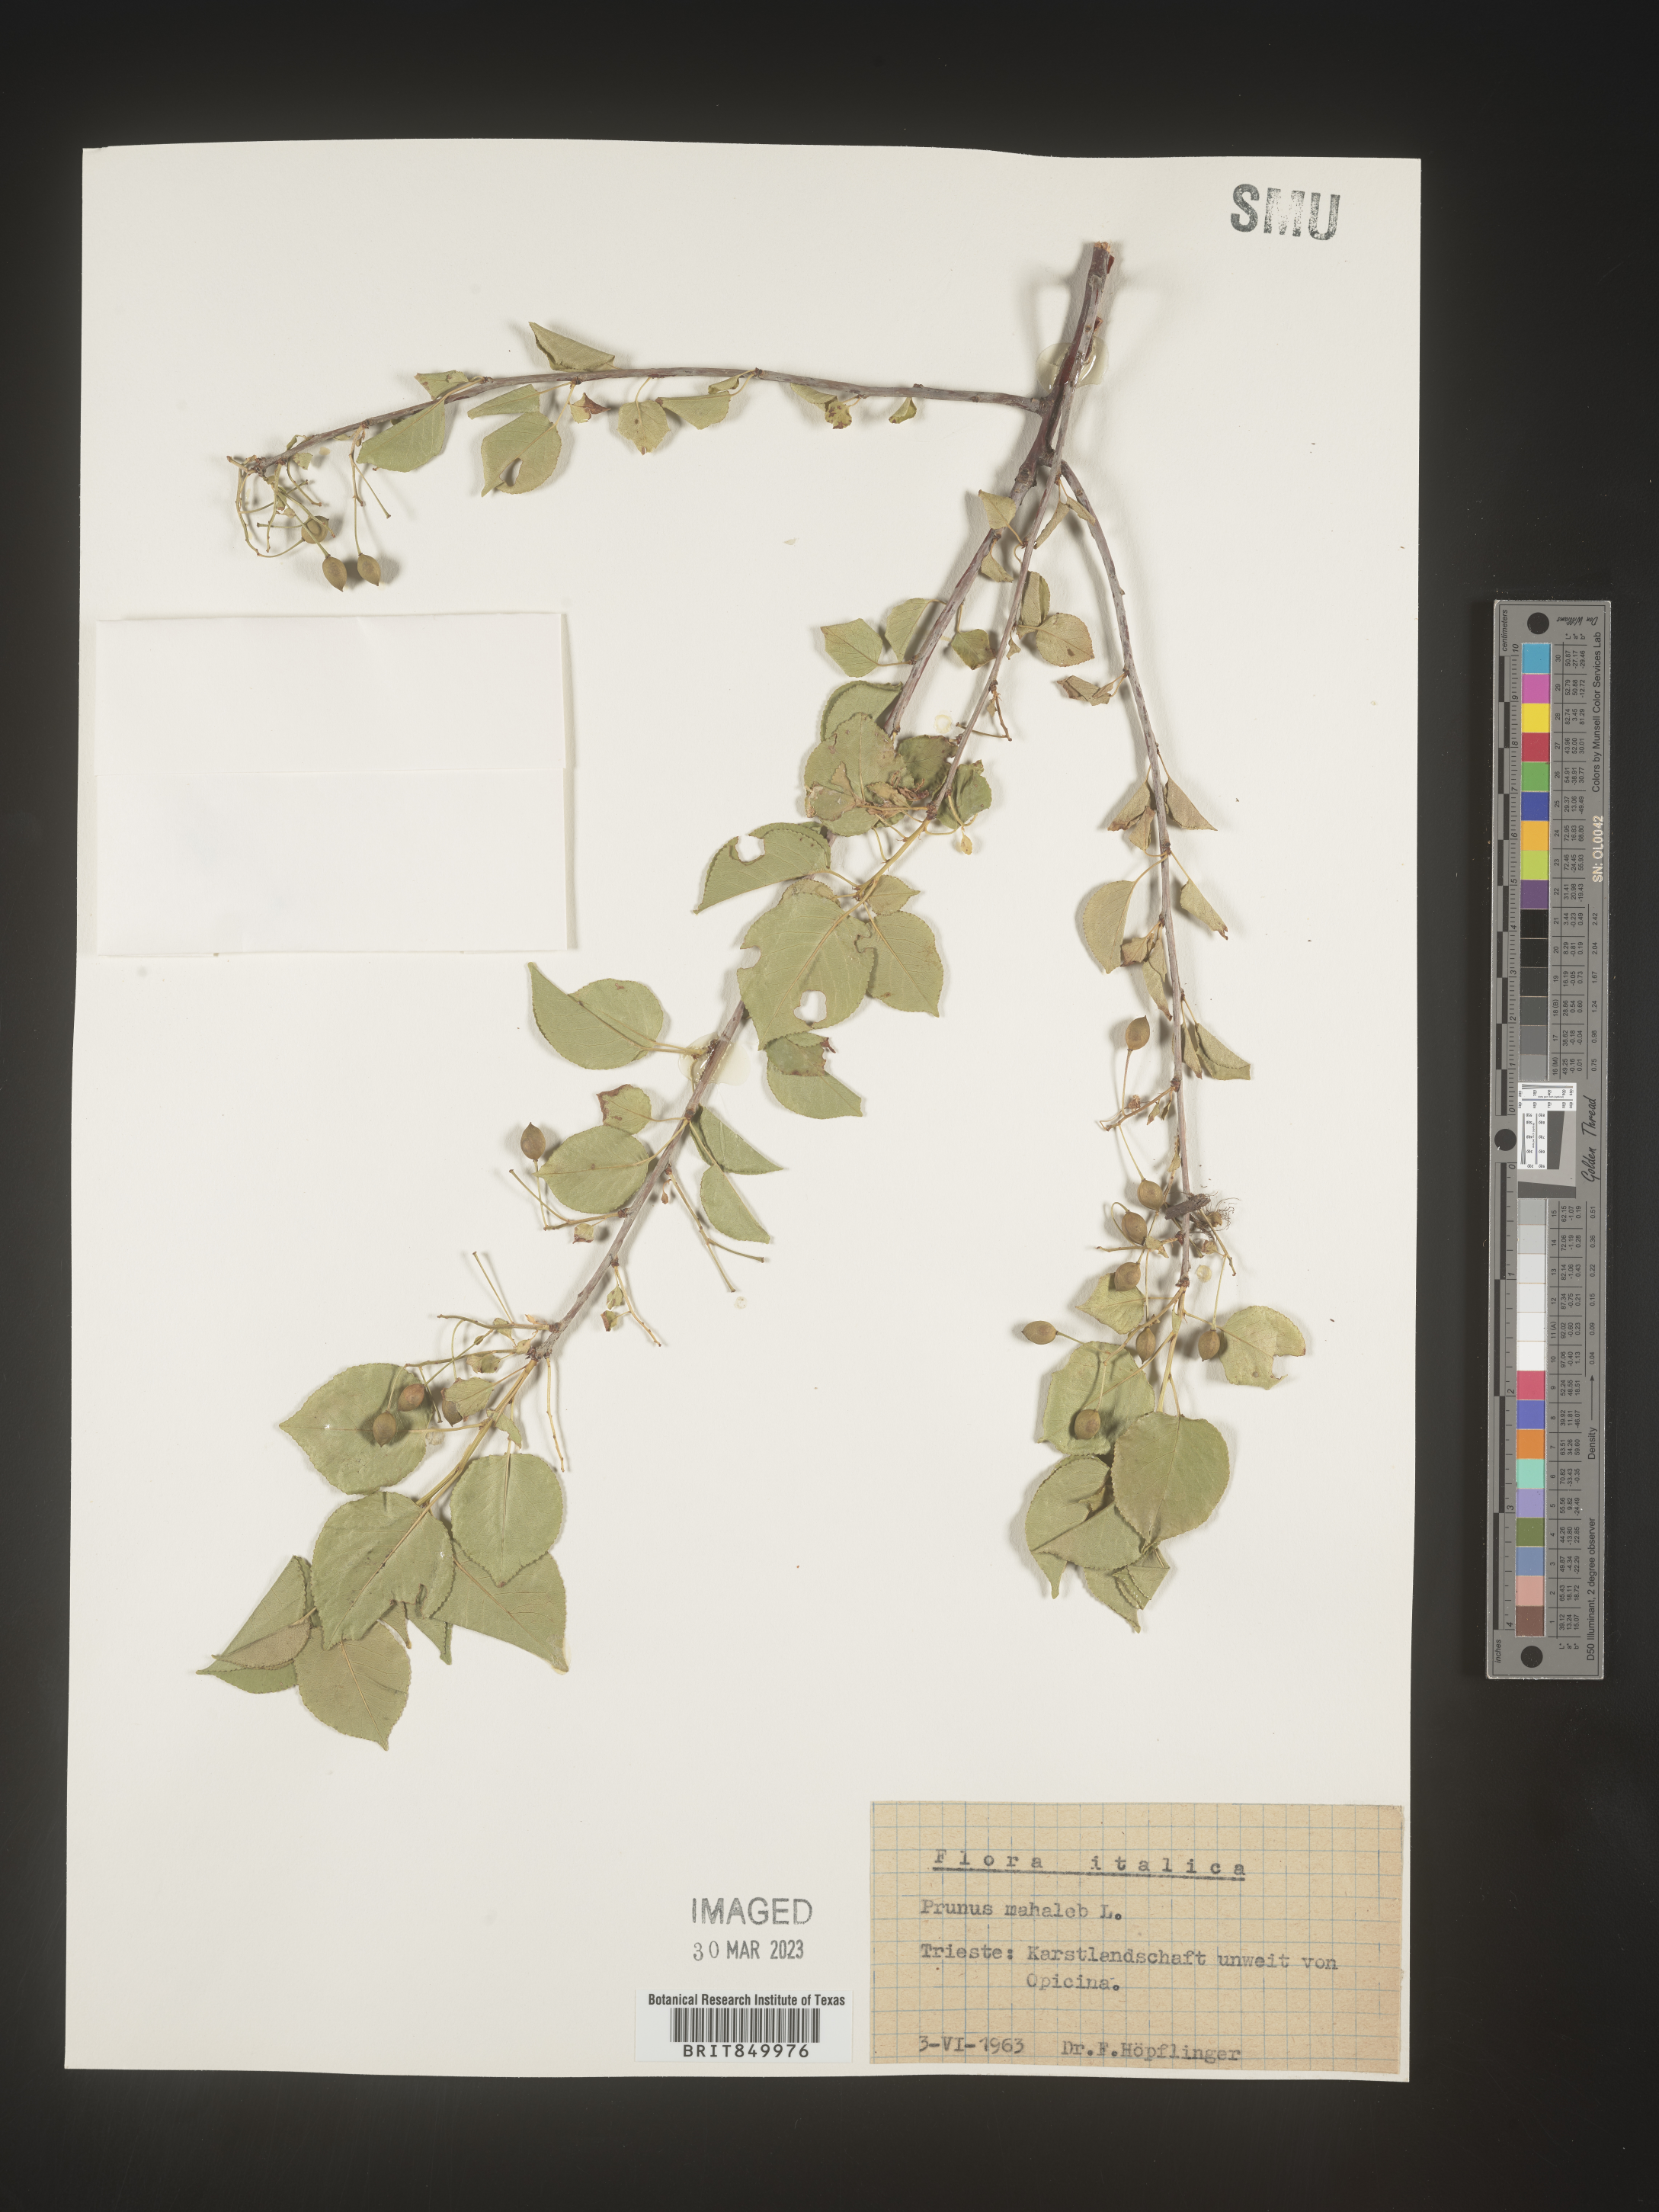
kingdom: Plantae
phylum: Tracheophyta
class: Magnoliopsida
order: Rosales
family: Rosaceae
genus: Prunus
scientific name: Prunus
